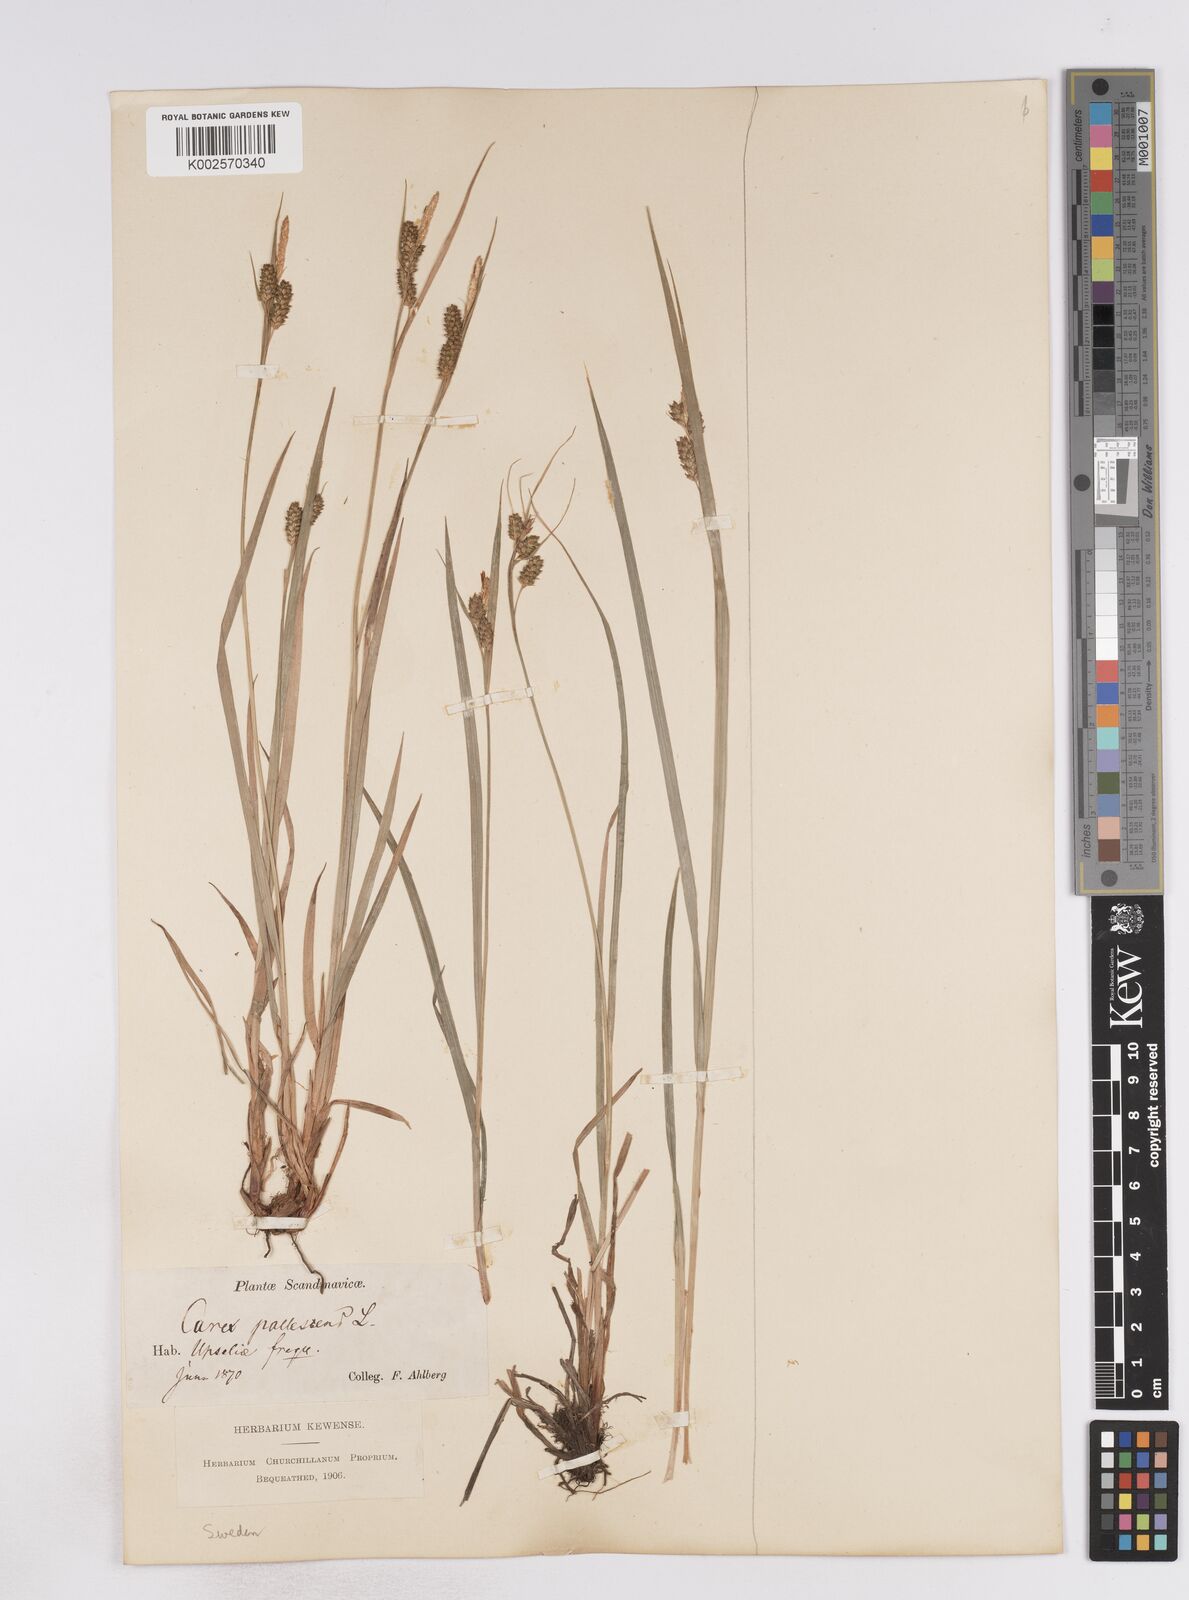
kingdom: Plantae
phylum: Tracheophyta
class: Liliopsida
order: Poales
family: Cyperaceae
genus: Carex
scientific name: Carex pallescens
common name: Pale sedge
